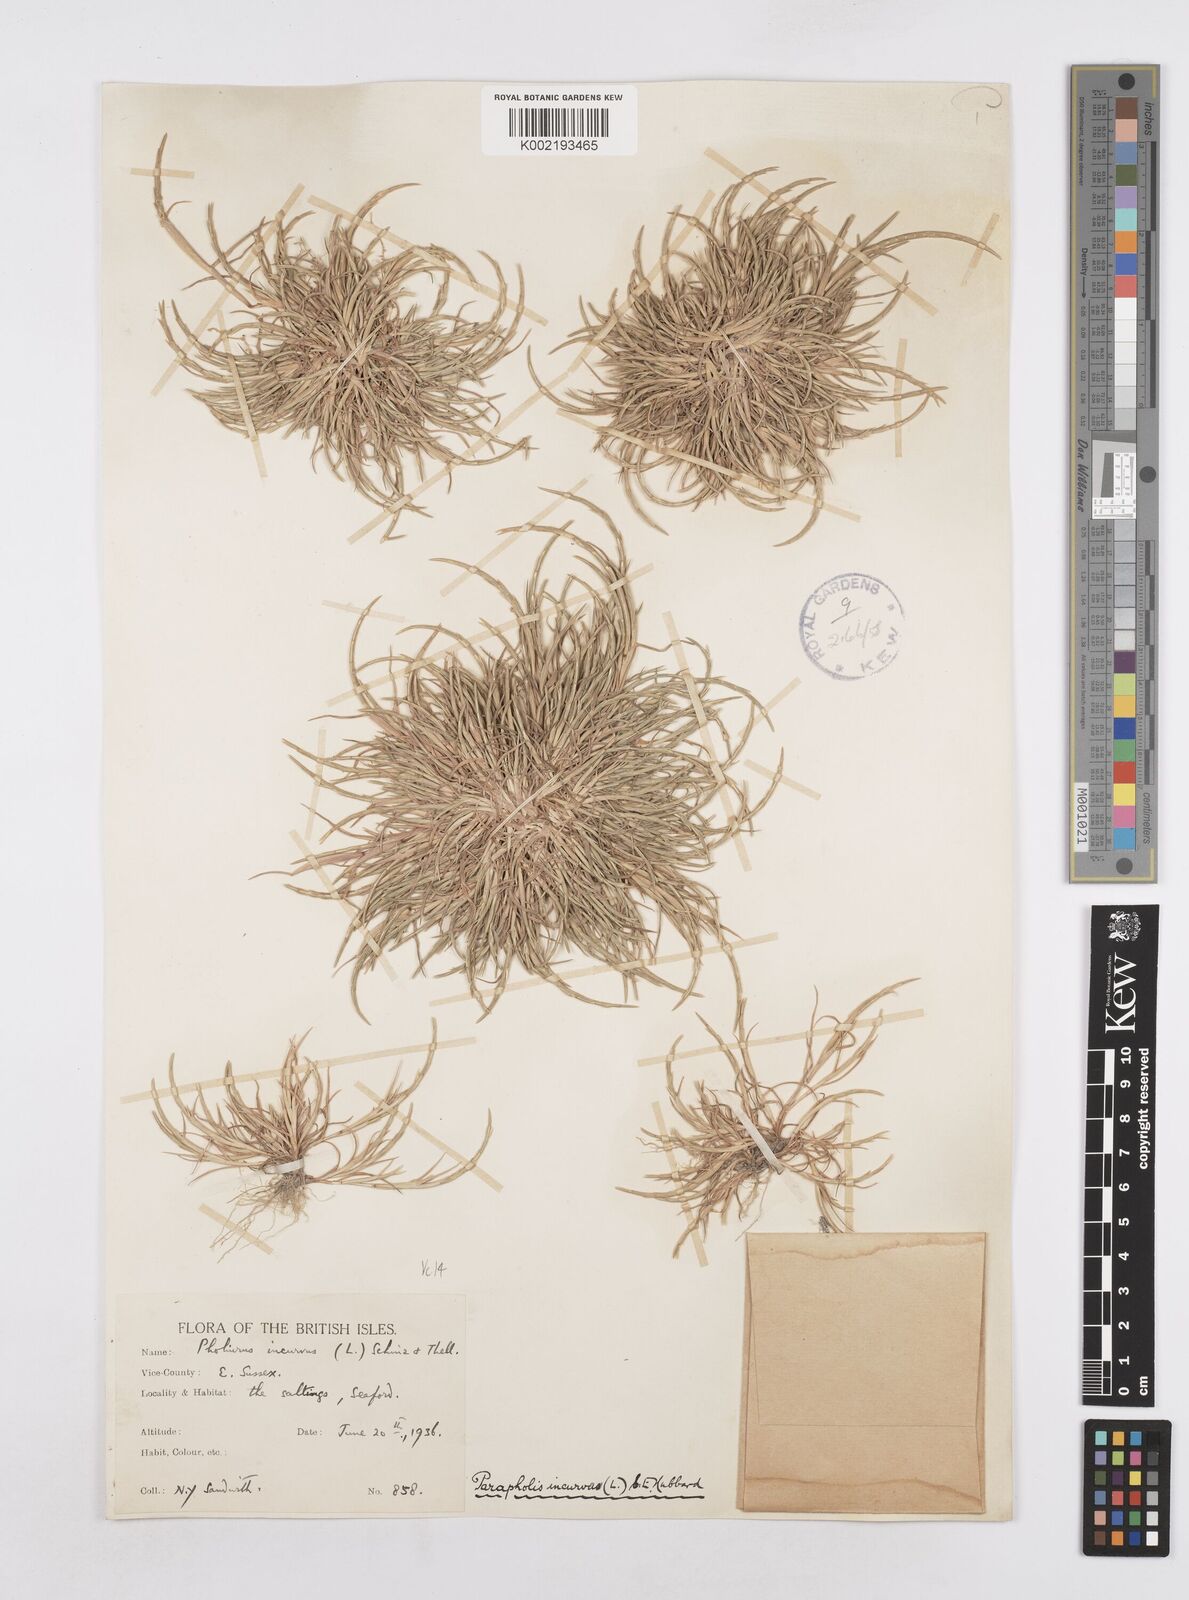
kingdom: Plantae
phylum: Tracheophyta
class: Liliopsida
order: Poales
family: Poaceae
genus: Parapholis
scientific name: Parapholis incurva
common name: Curved sicklegrass
